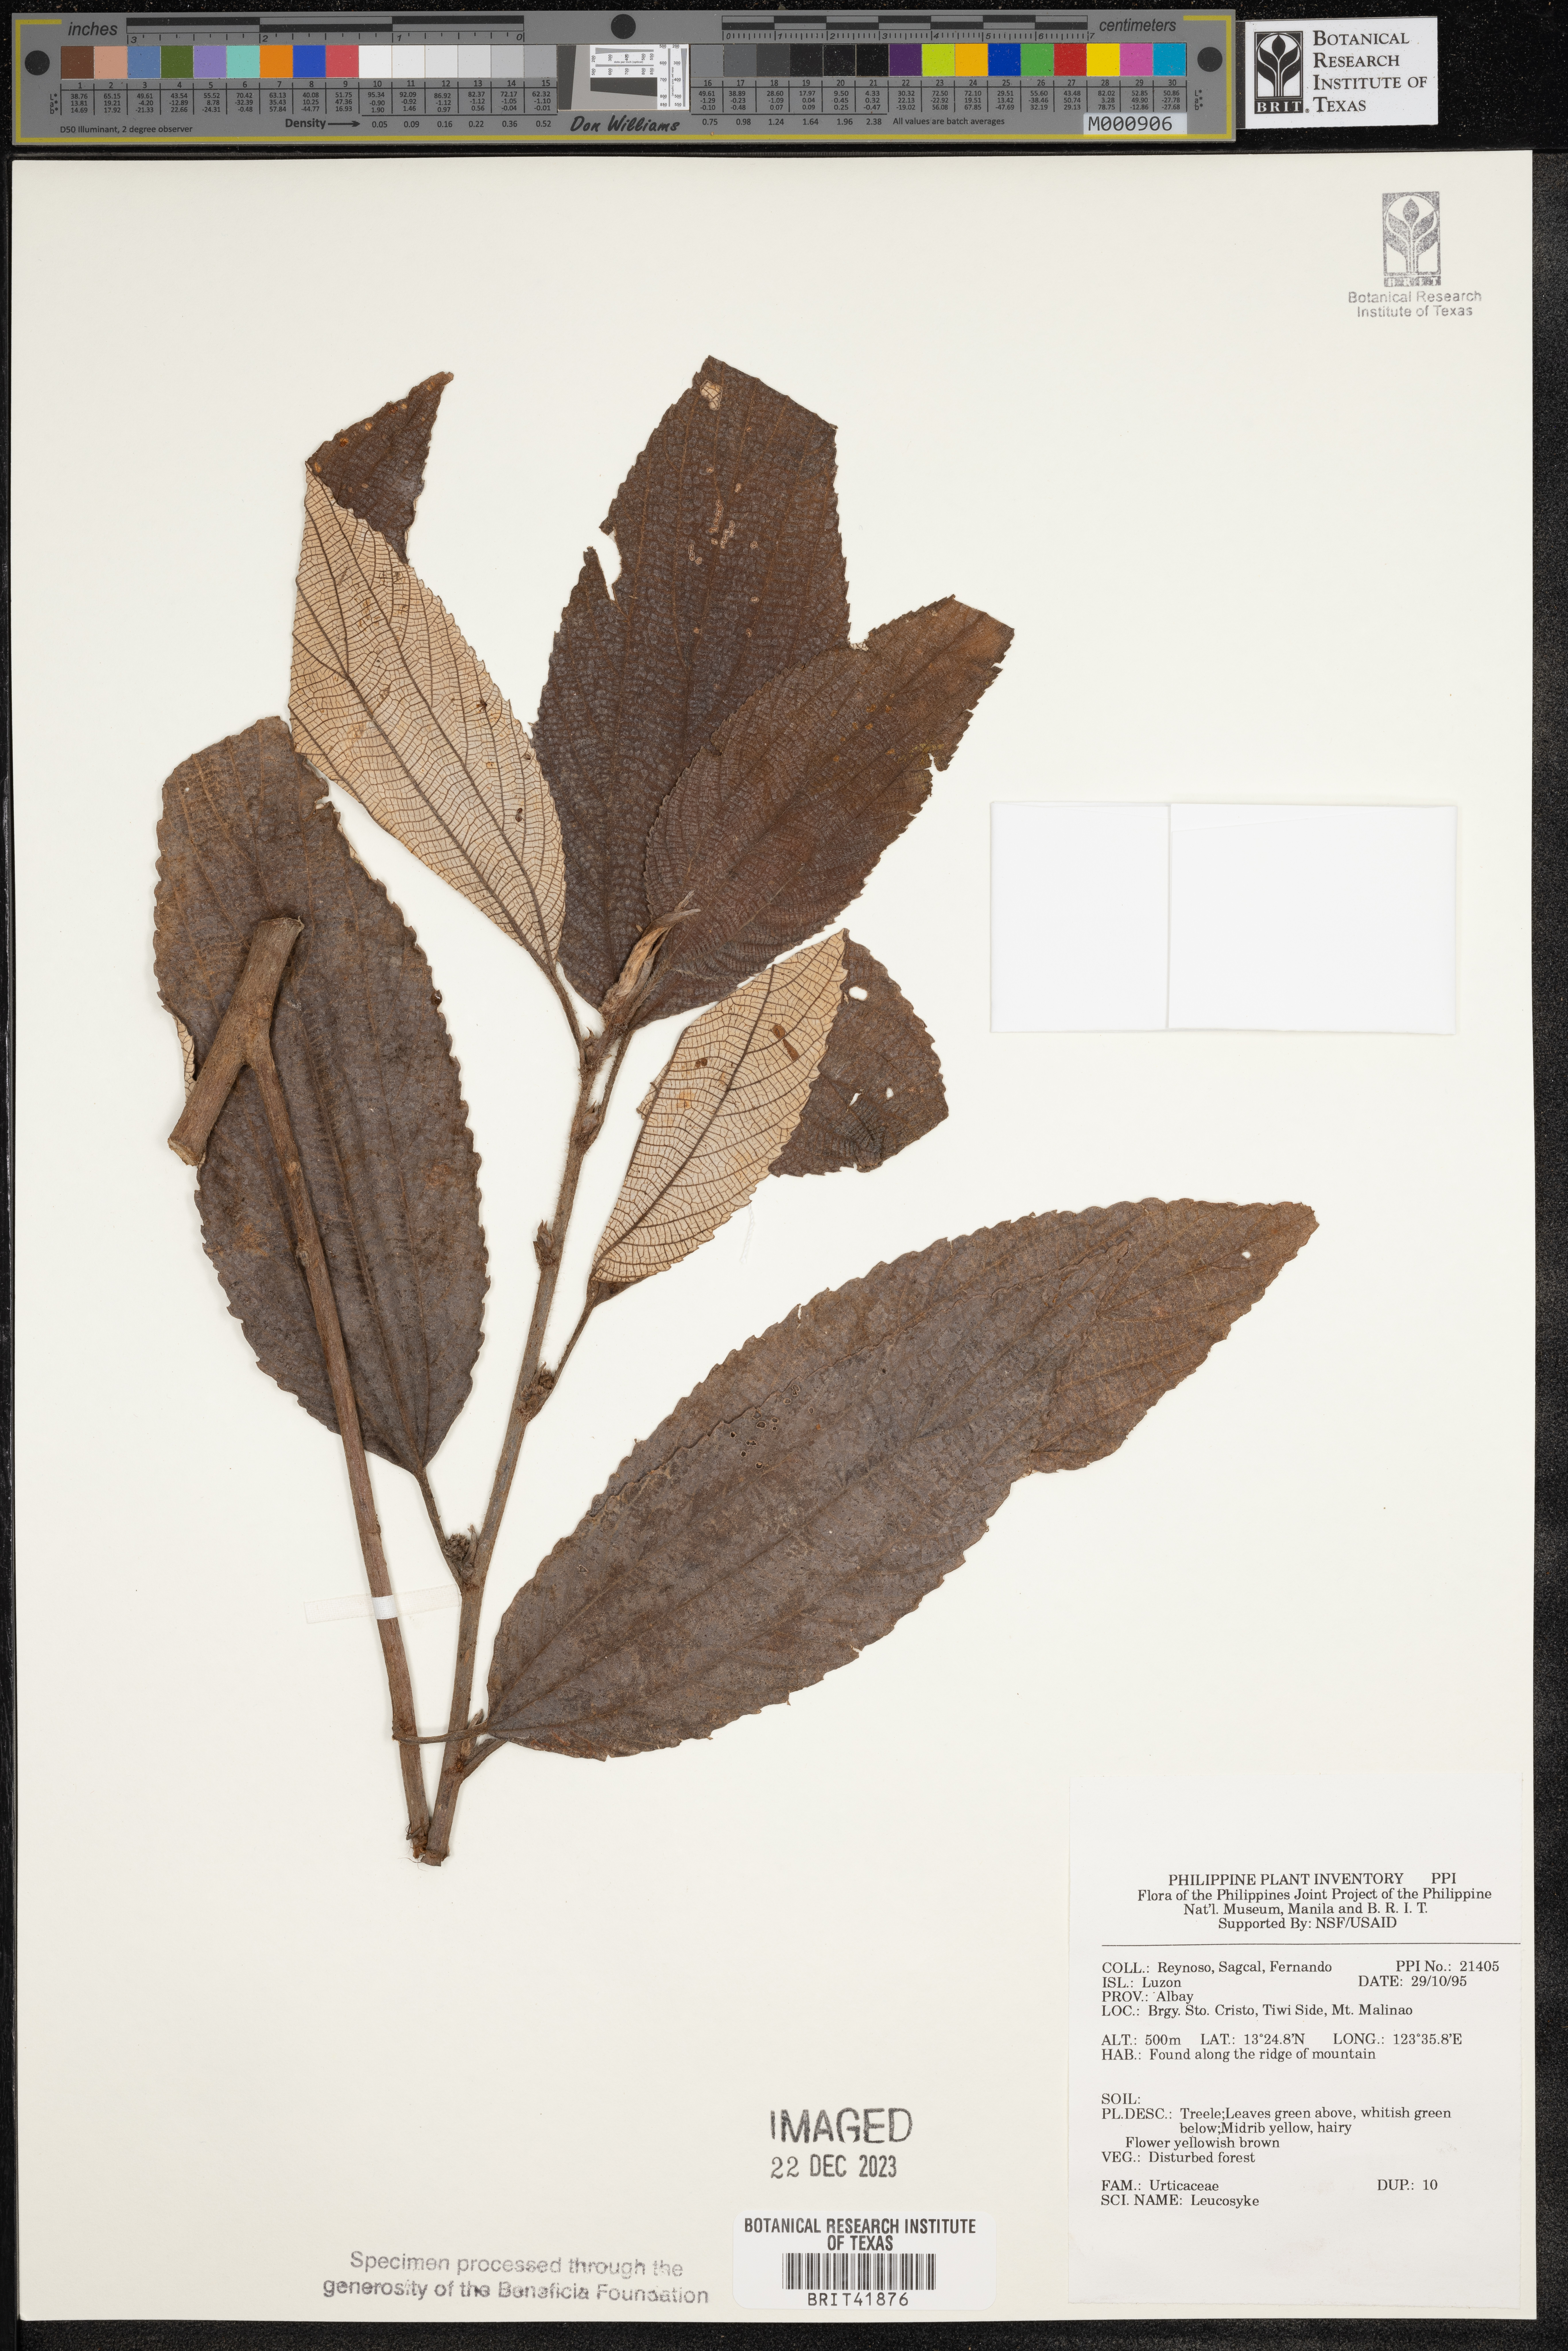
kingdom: Plantae
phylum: Tracheophyta
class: Magnoliopsida
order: Rosales
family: Urticaceae
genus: Leucosyke
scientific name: Leucosyke
